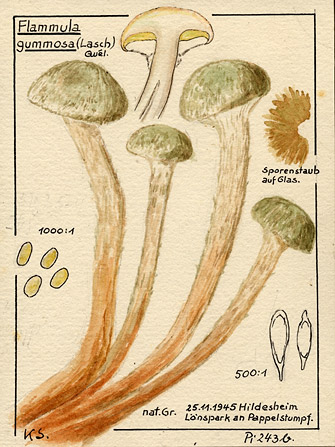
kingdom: Fungi
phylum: Basidiomycota
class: Agaricomycetes
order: Agaricales
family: Strophariaceae
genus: Pholiota
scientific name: Pholiota gummosa
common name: Sticky scalycap
